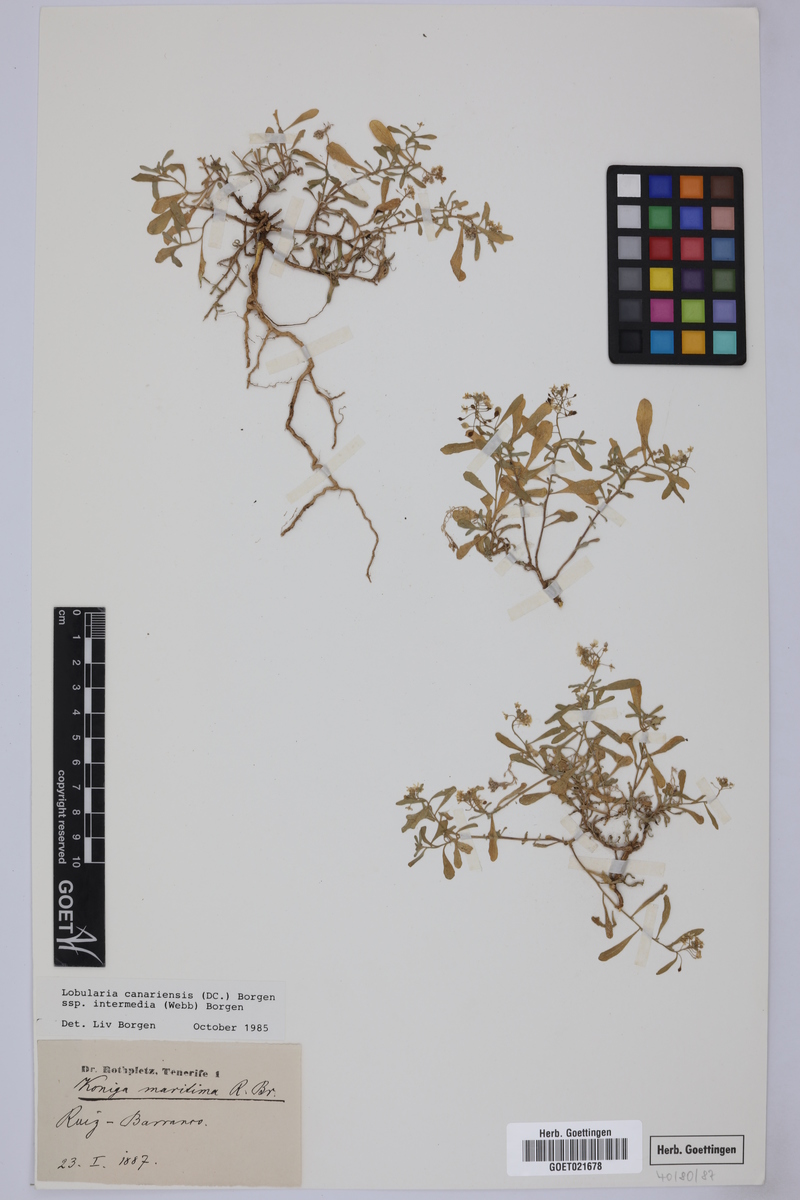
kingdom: Plantae
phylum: Tracheophyta
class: Magnoliopsida
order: Brassicales
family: Brassicaceae
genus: Lobularia
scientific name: Lobularia canariensis
